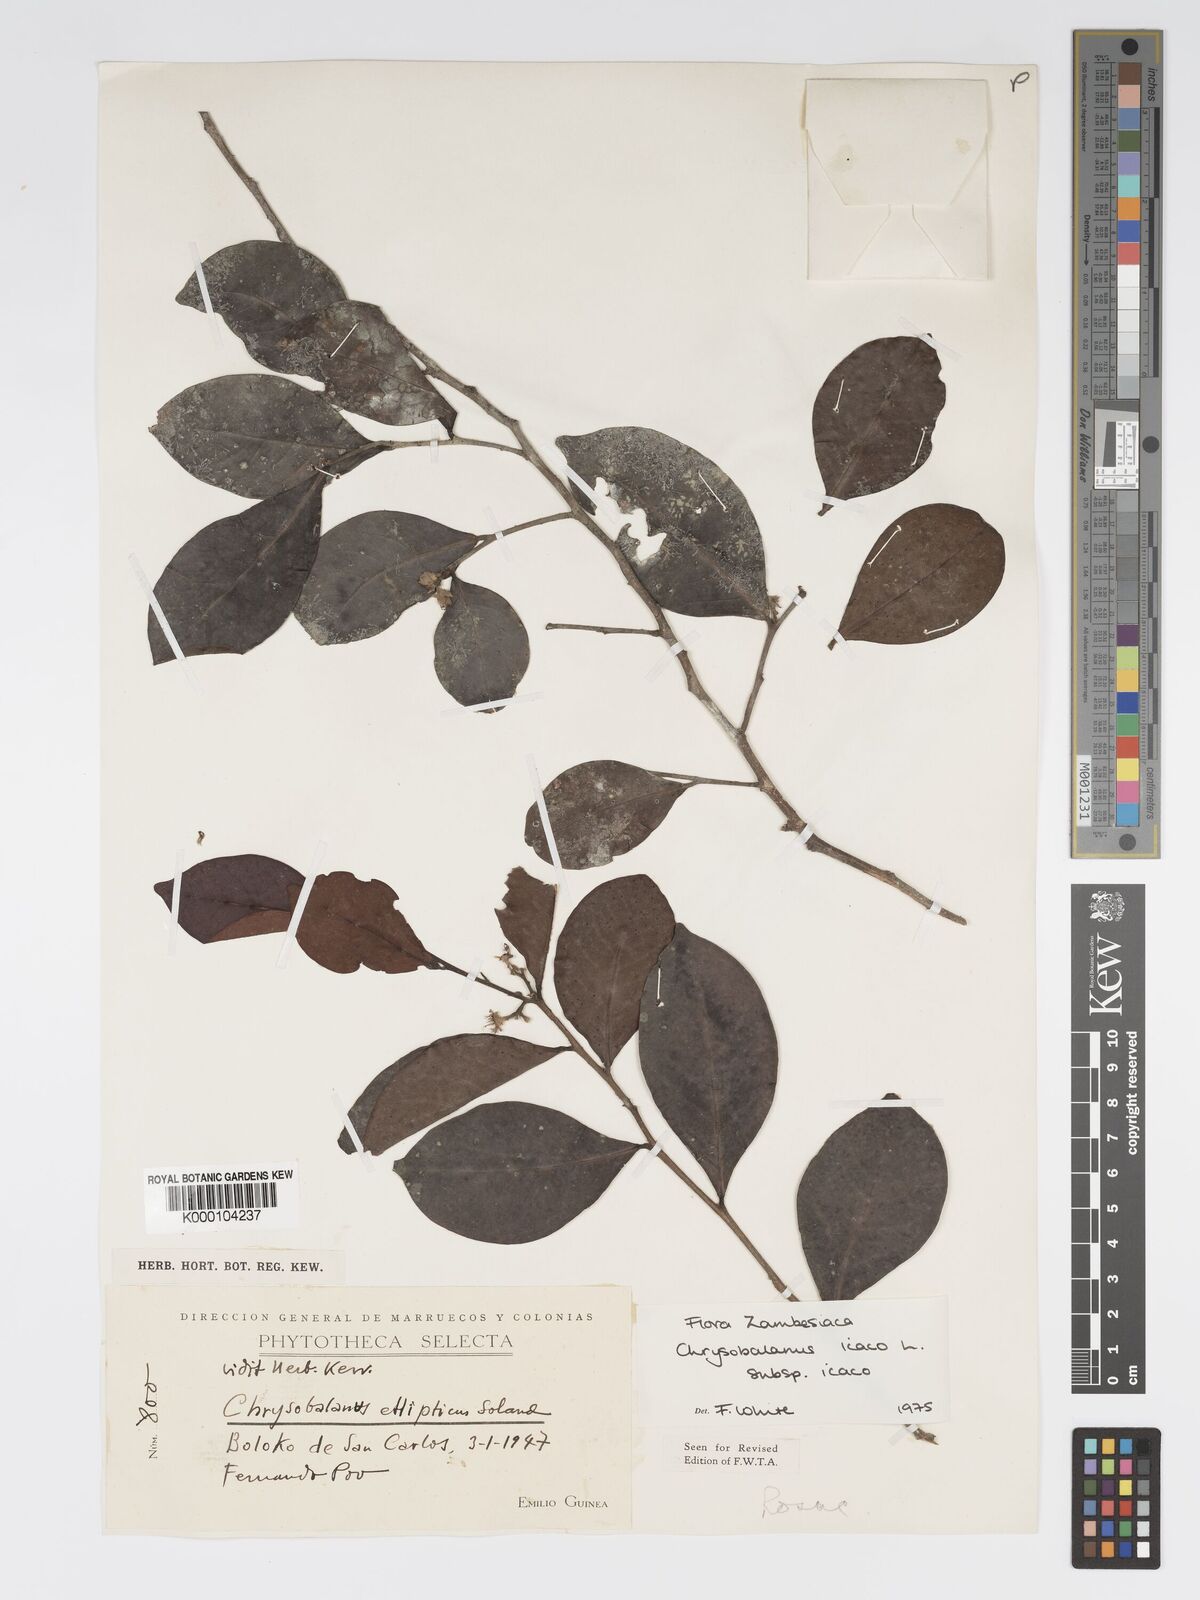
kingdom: Plantae
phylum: Tracheophyta
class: Magnoliopsida
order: Malpighiales
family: Chrysobalanaceae
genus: Chrysobalanus
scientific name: Chrysobalanus icaco
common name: Coco plum
